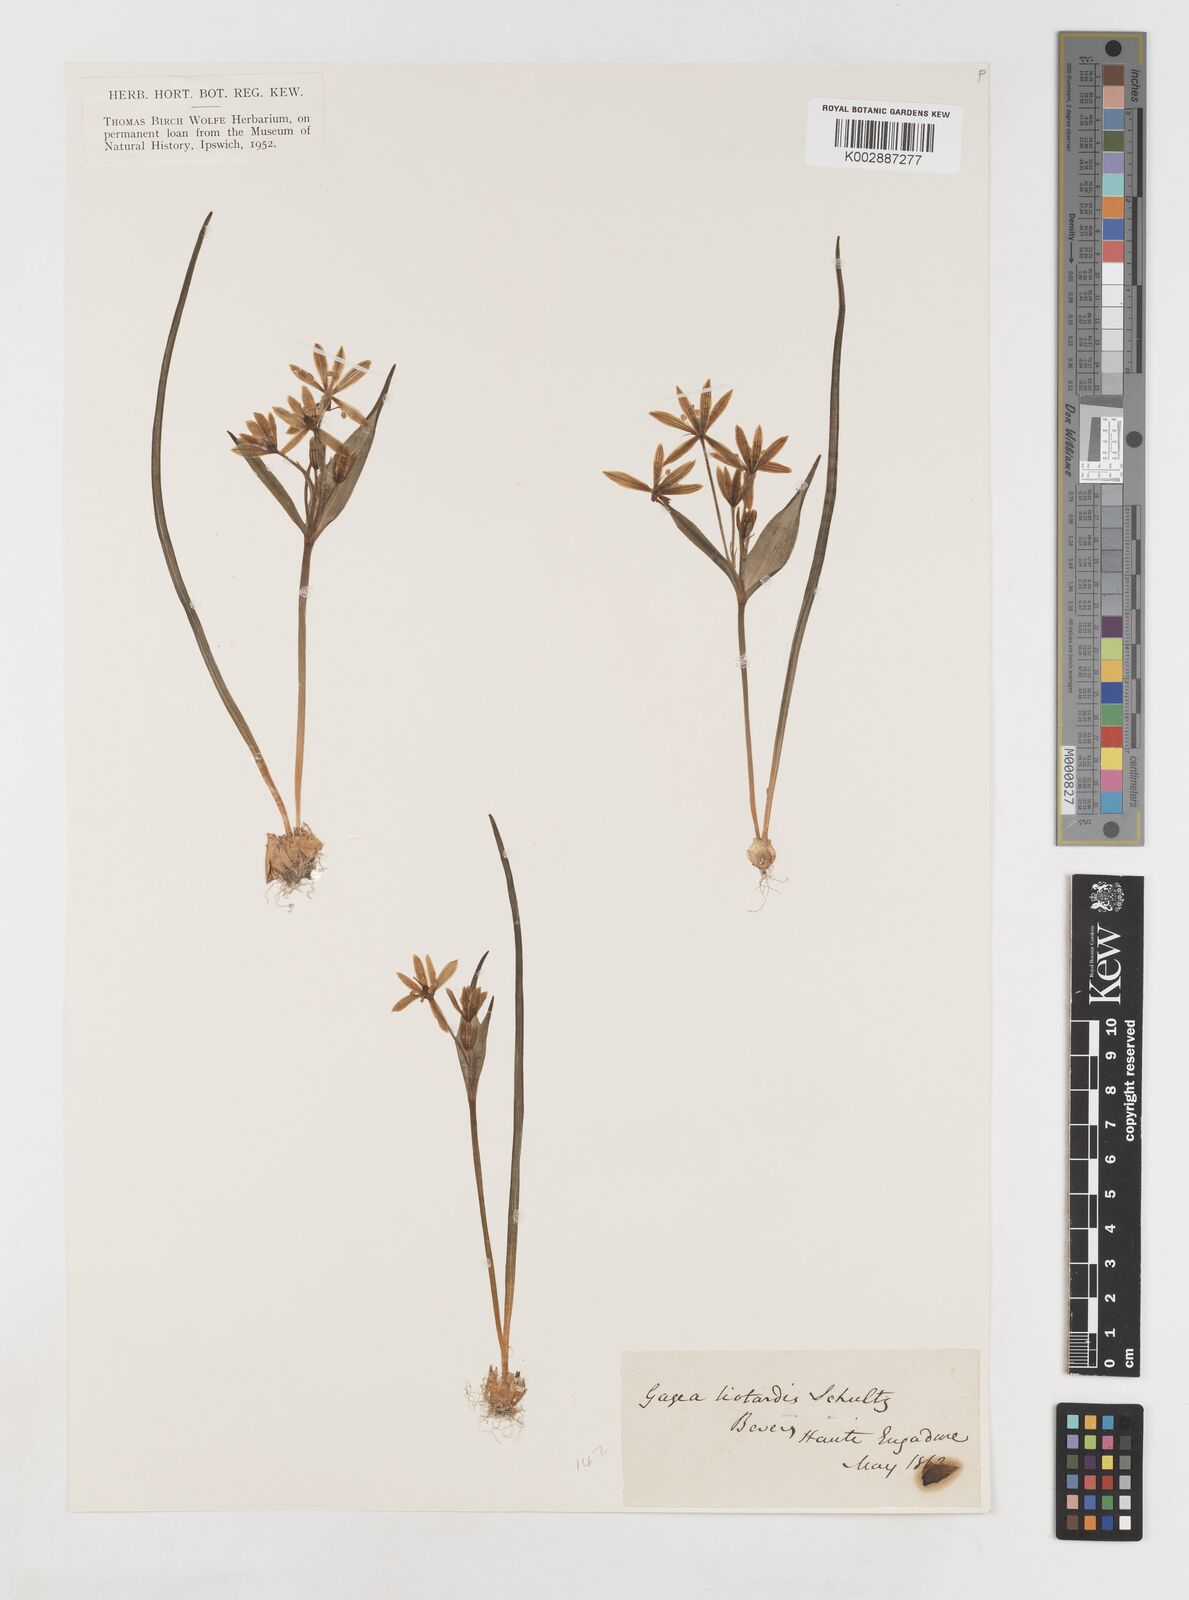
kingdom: Plantae
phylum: Tracheophyta
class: Liliopsida
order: Liliales
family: Liliaceae
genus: Gagea
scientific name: Gagea bohemica
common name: Early star-of-bethlehem
